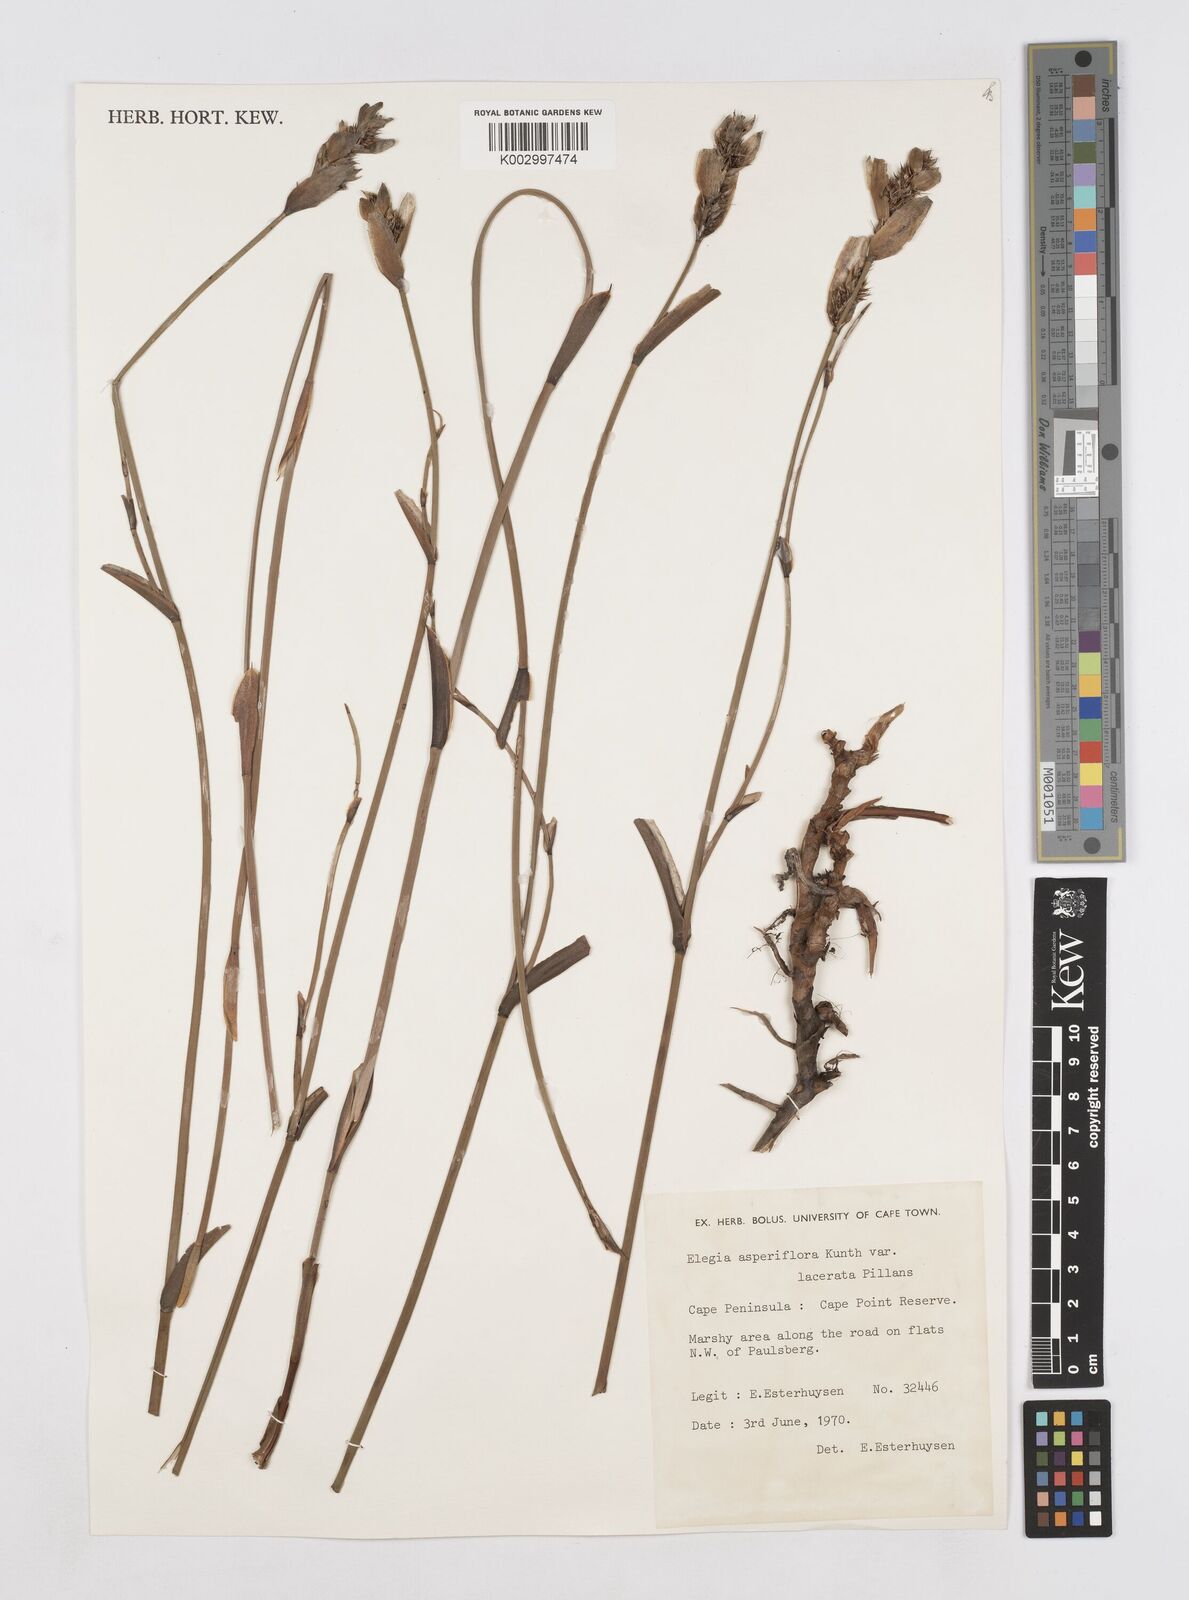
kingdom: Plantae
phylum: Tracheophyta
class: Liliopsida
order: Poales
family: Restionaceae
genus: Elegia
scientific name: Elegia asperiflora
